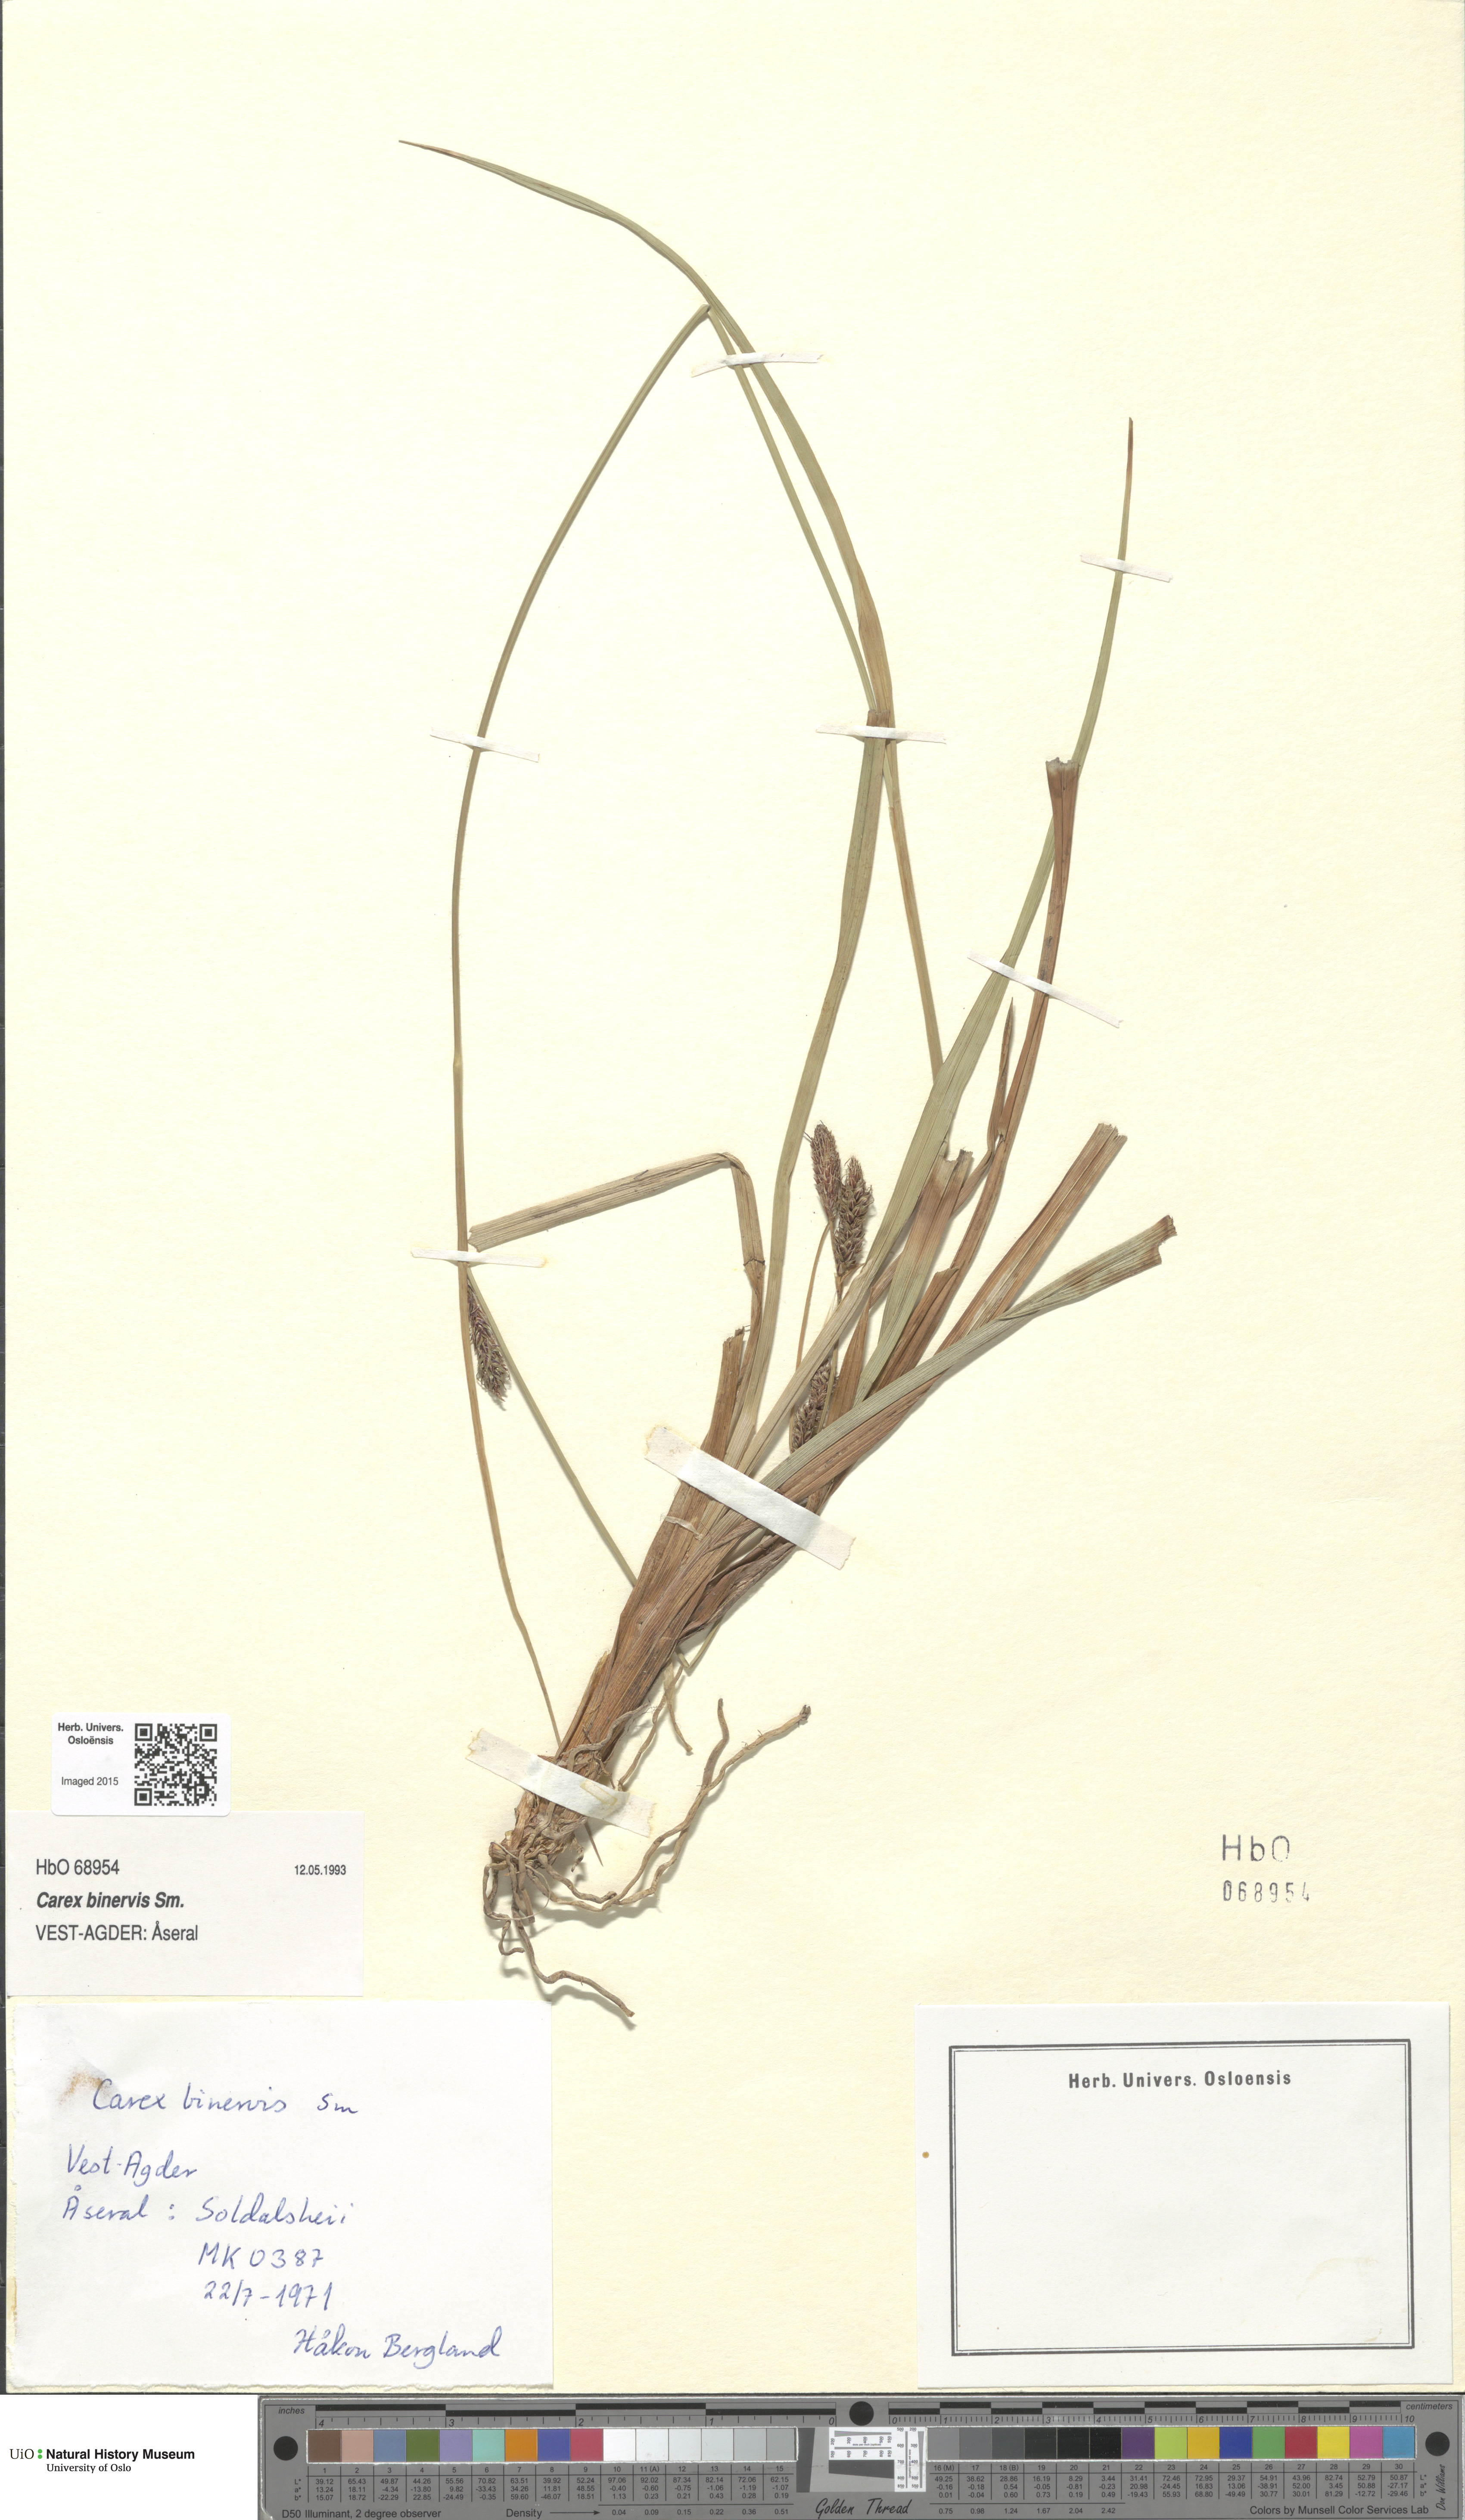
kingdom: Plantae
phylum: Tracheophyta
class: Liliopsida
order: Poales
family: Cyperaceae
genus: Carex
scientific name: Carex binervis
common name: Green-ribbed sedge
